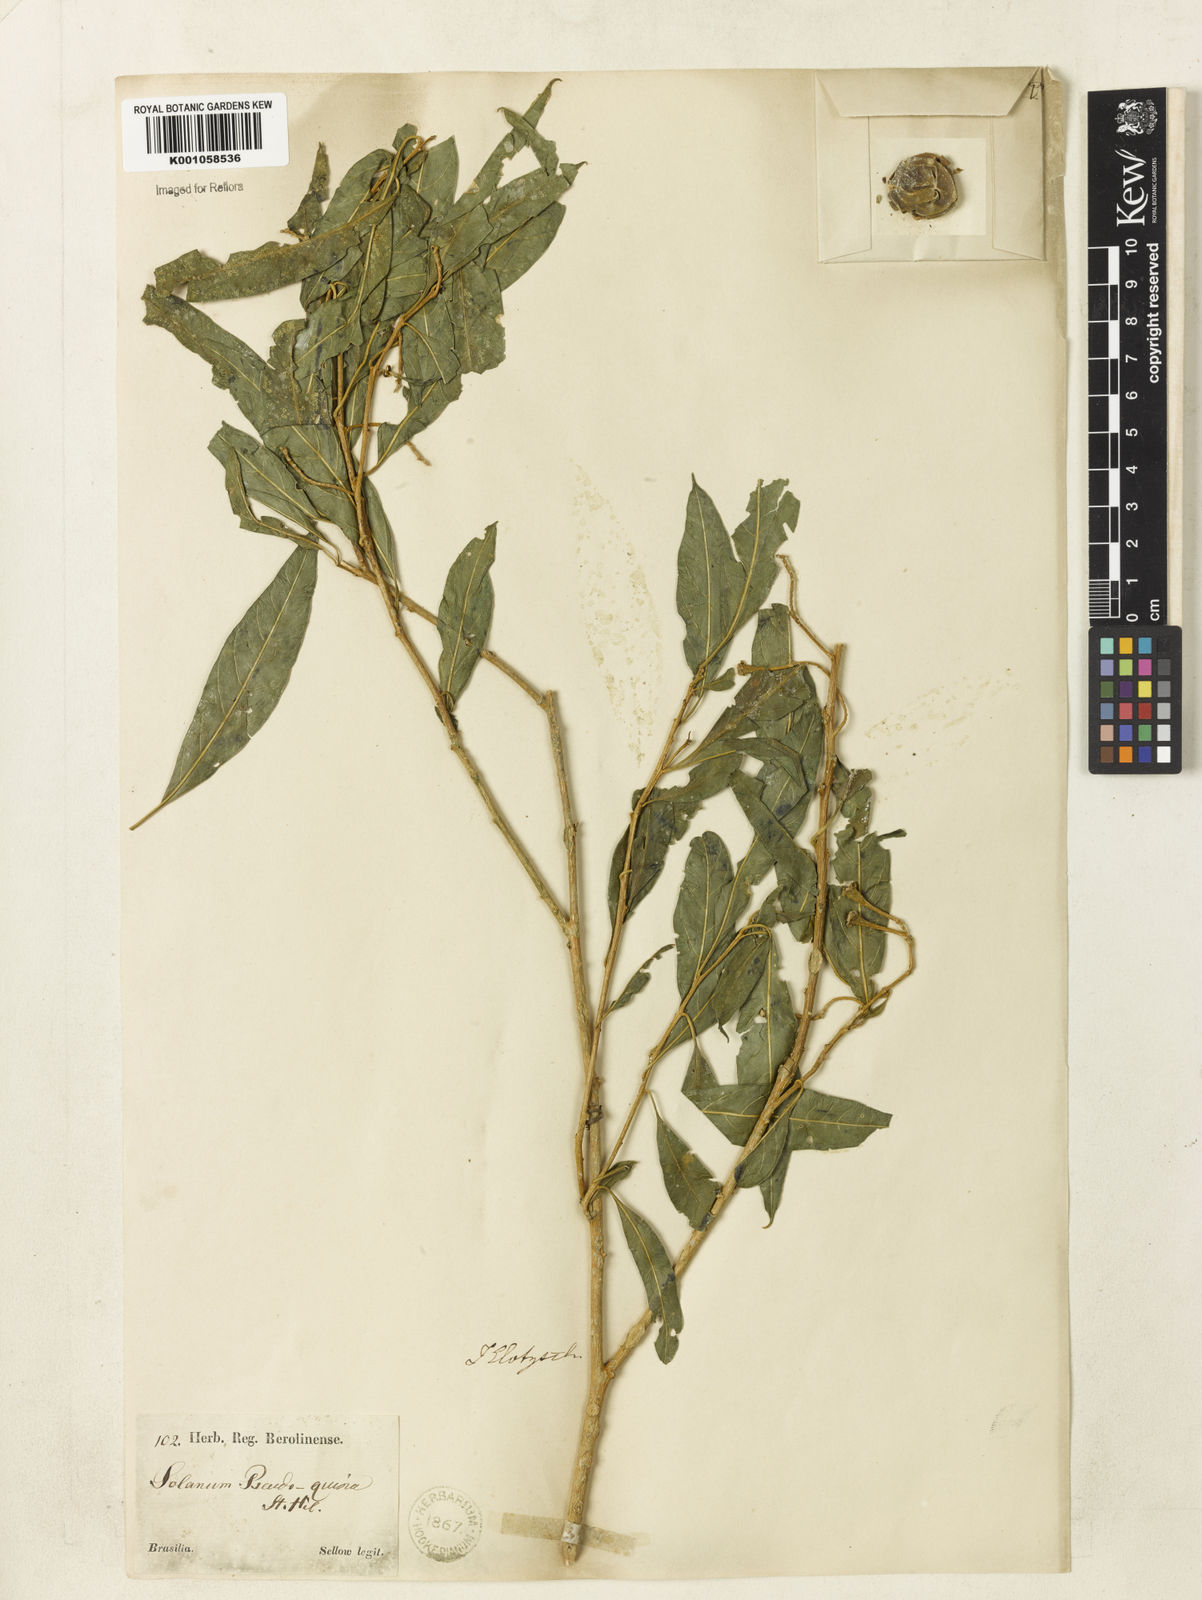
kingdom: Plantae
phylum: Tracheophyta
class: Magnoliopsida
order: Solanales
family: Solanaceae
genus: Solanum
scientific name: Solanum pseudoquina
